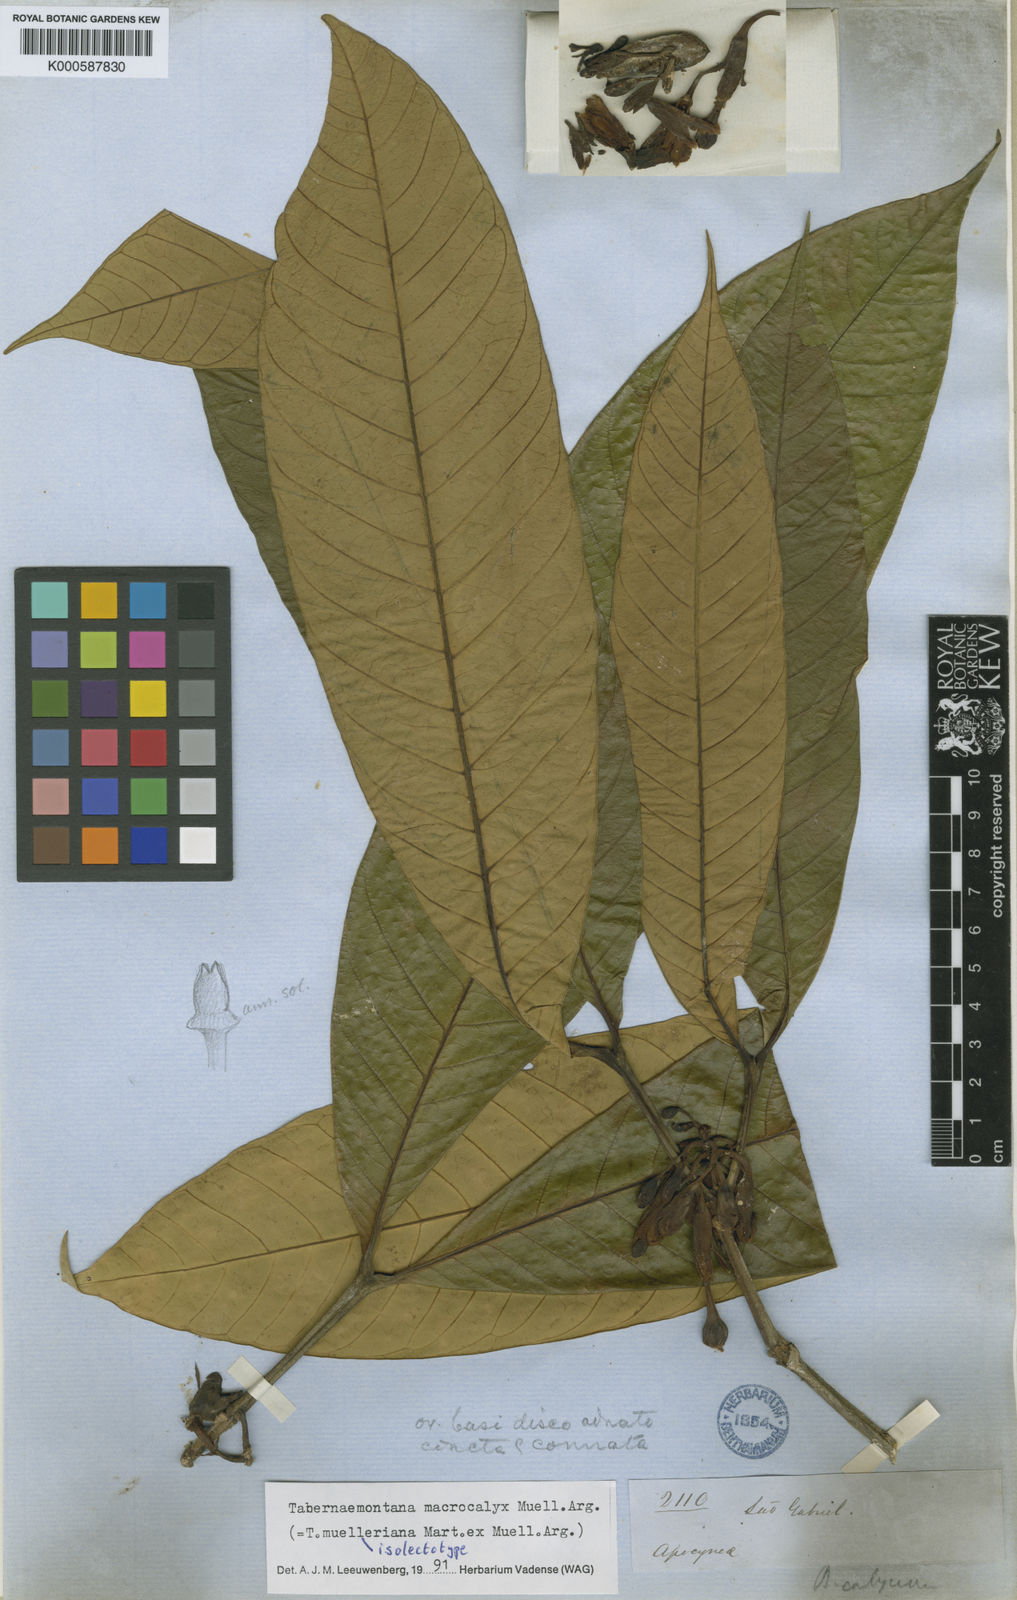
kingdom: Plantae
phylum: Tracheophyta
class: Magnoliopsida
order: Gentianales
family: Apocynaceae
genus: Tabernaemontana
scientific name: Tabernaemontana
